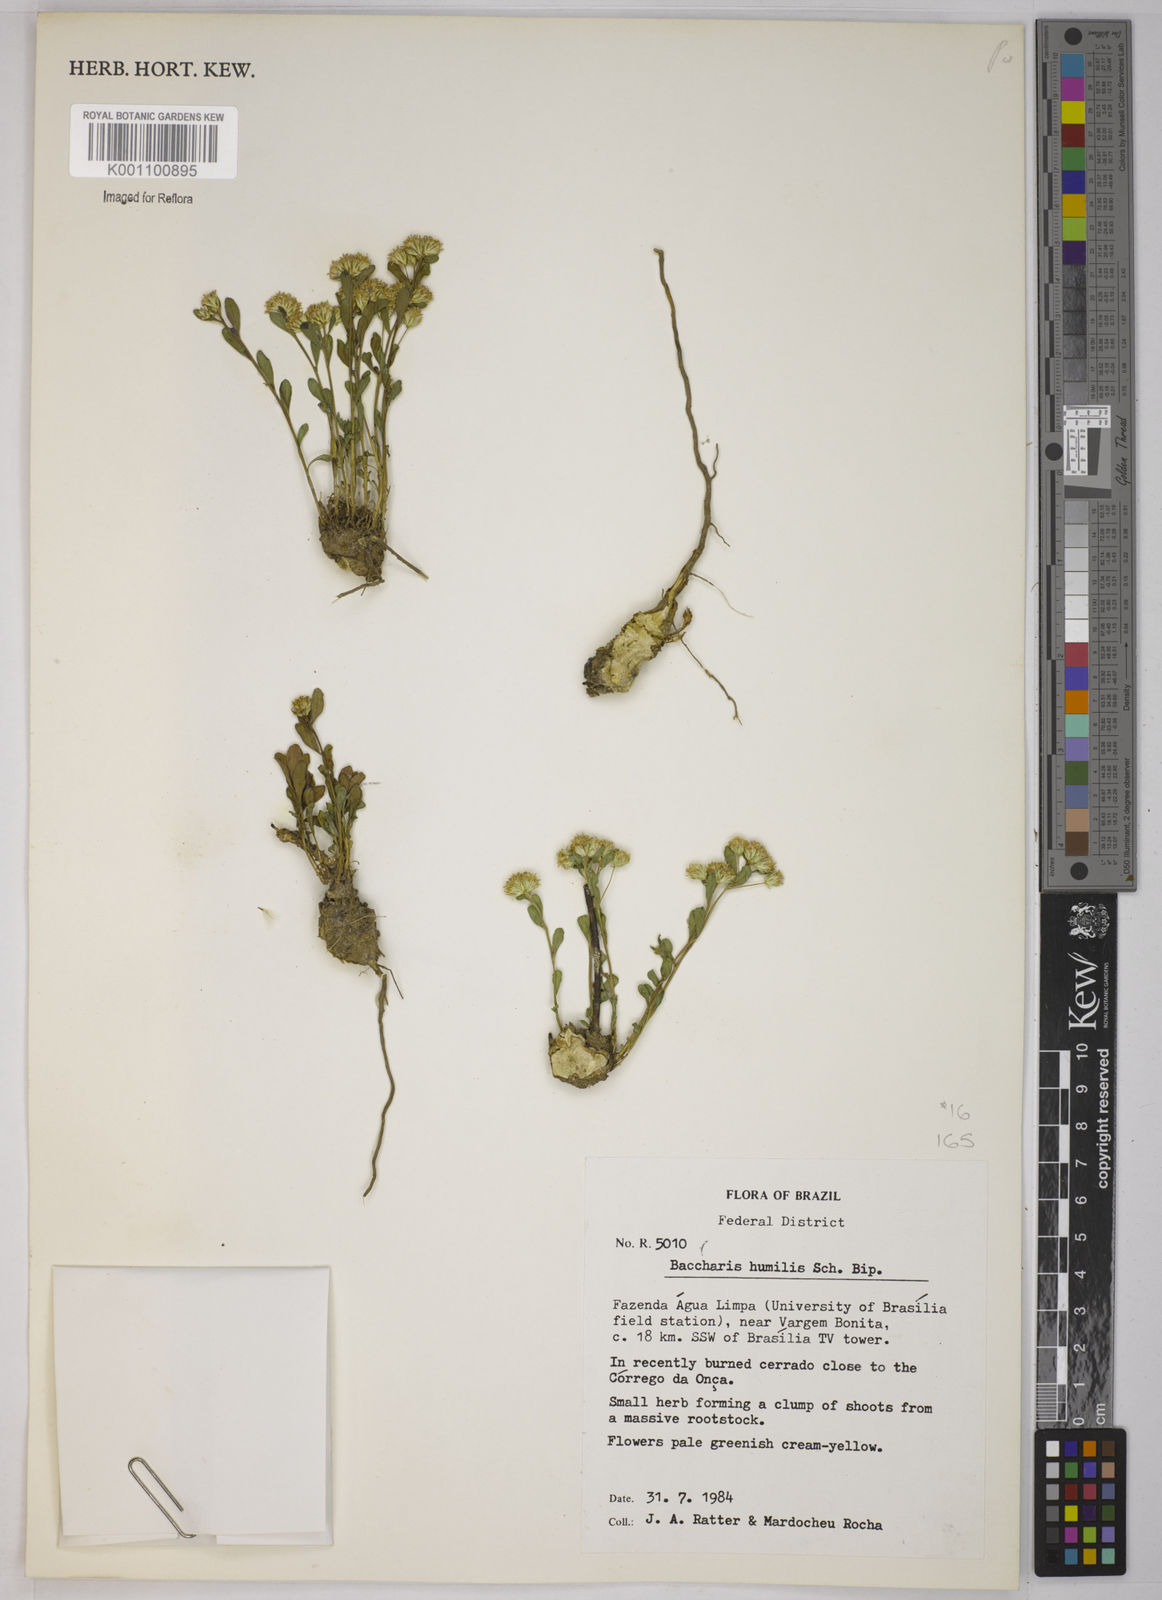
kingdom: Plantae
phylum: Tracheophyta
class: Magnoliopsida
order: Asterales
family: Asteraceae
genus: Baccharis
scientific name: Baccharis humilis
